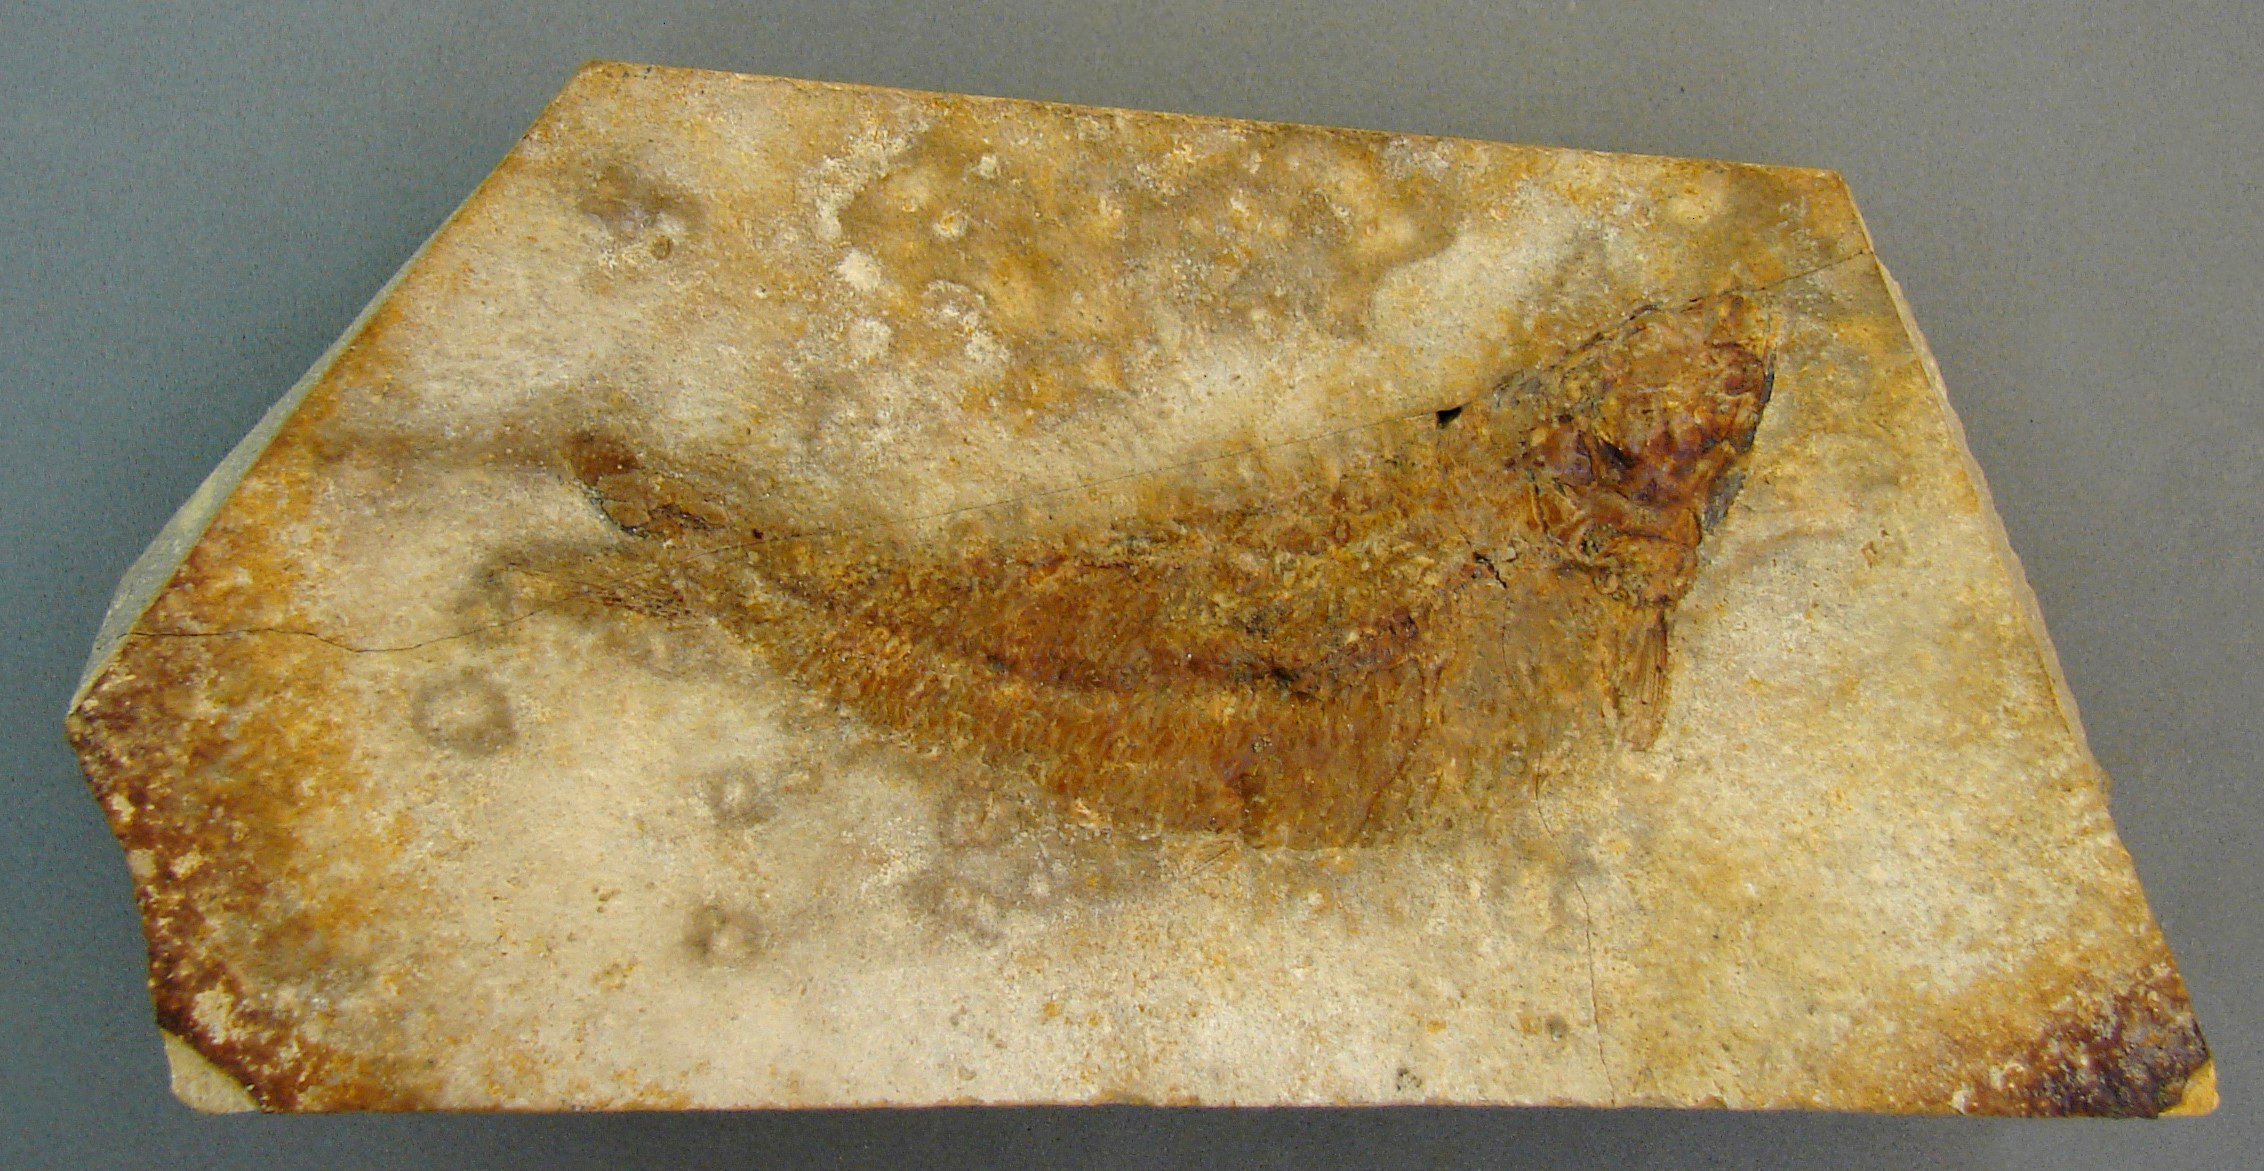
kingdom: Animalia
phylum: Chordata
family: Leptolepididae
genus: Leptolepis
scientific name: Leptolepis normandica
